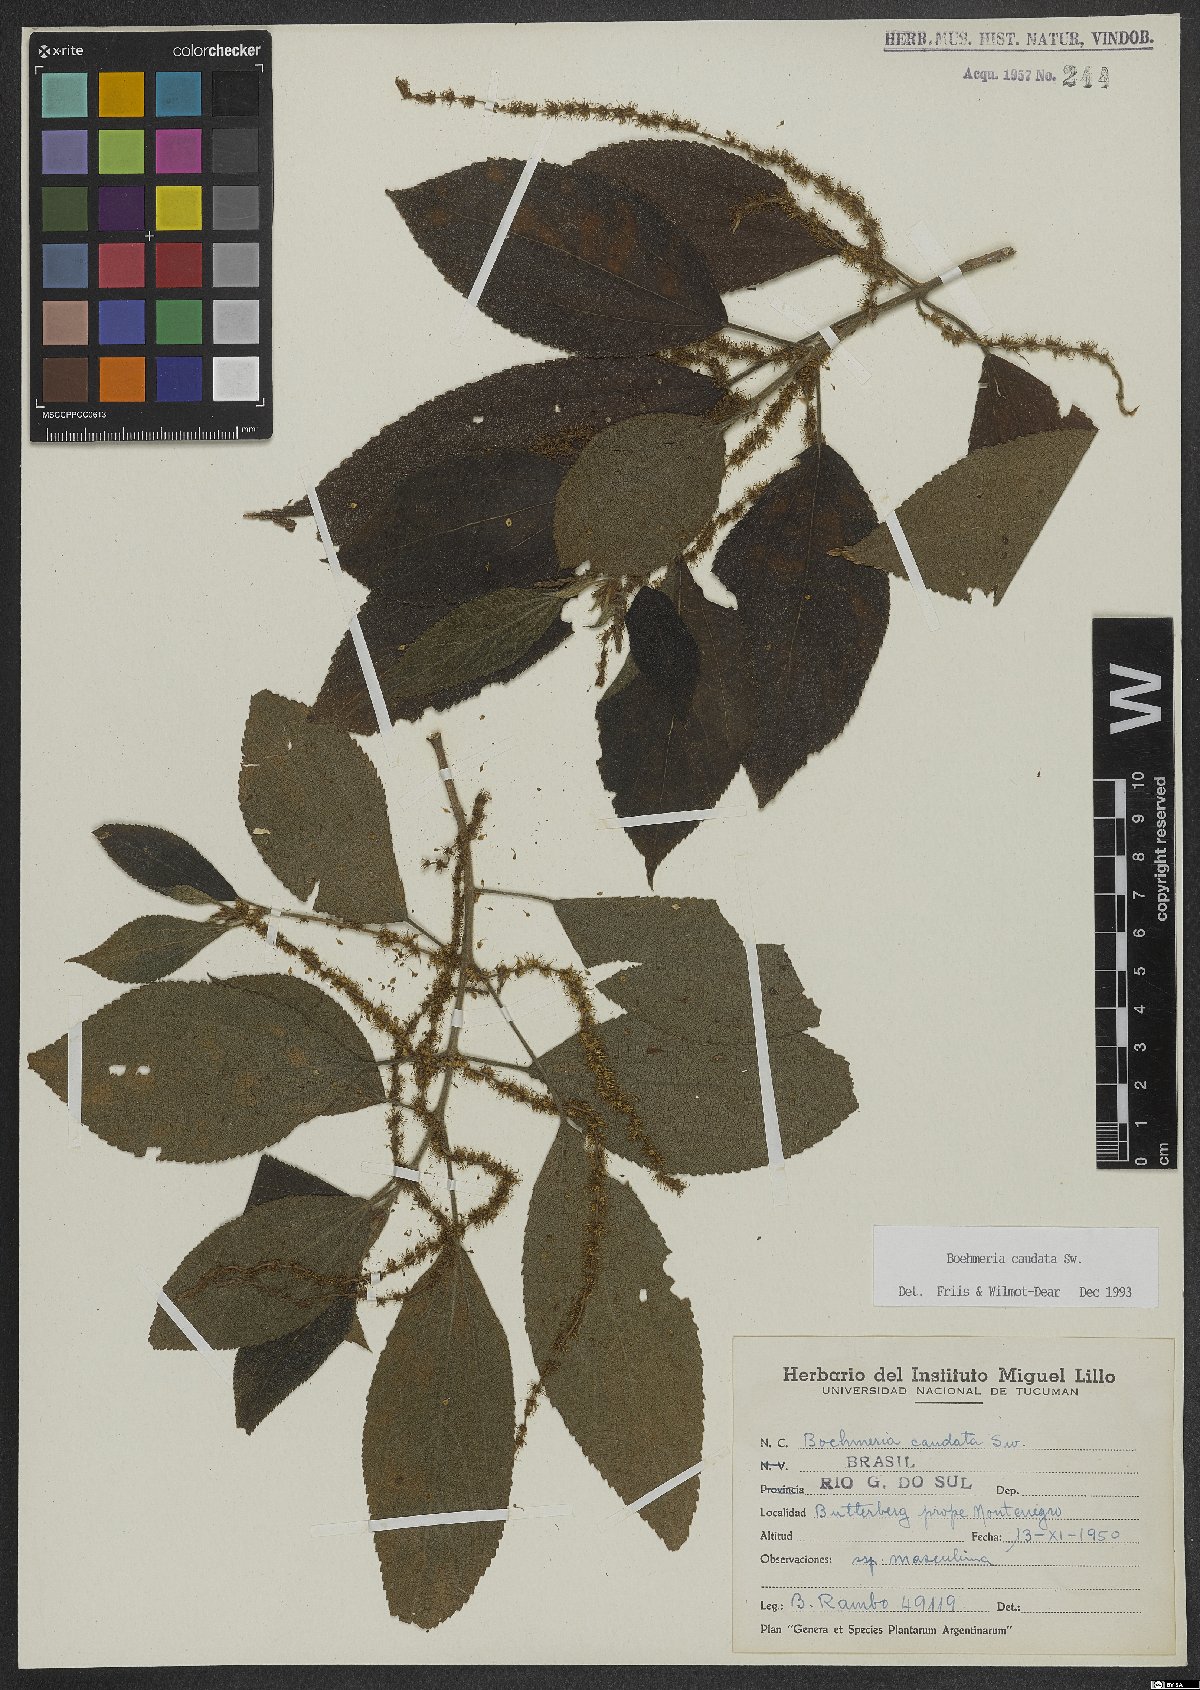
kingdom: Plantae
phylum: Tracheophyta
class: Magnoliopsida
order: Rosales
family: Urticaceae
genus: Boehmeria
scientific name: Boehmeria caudata
